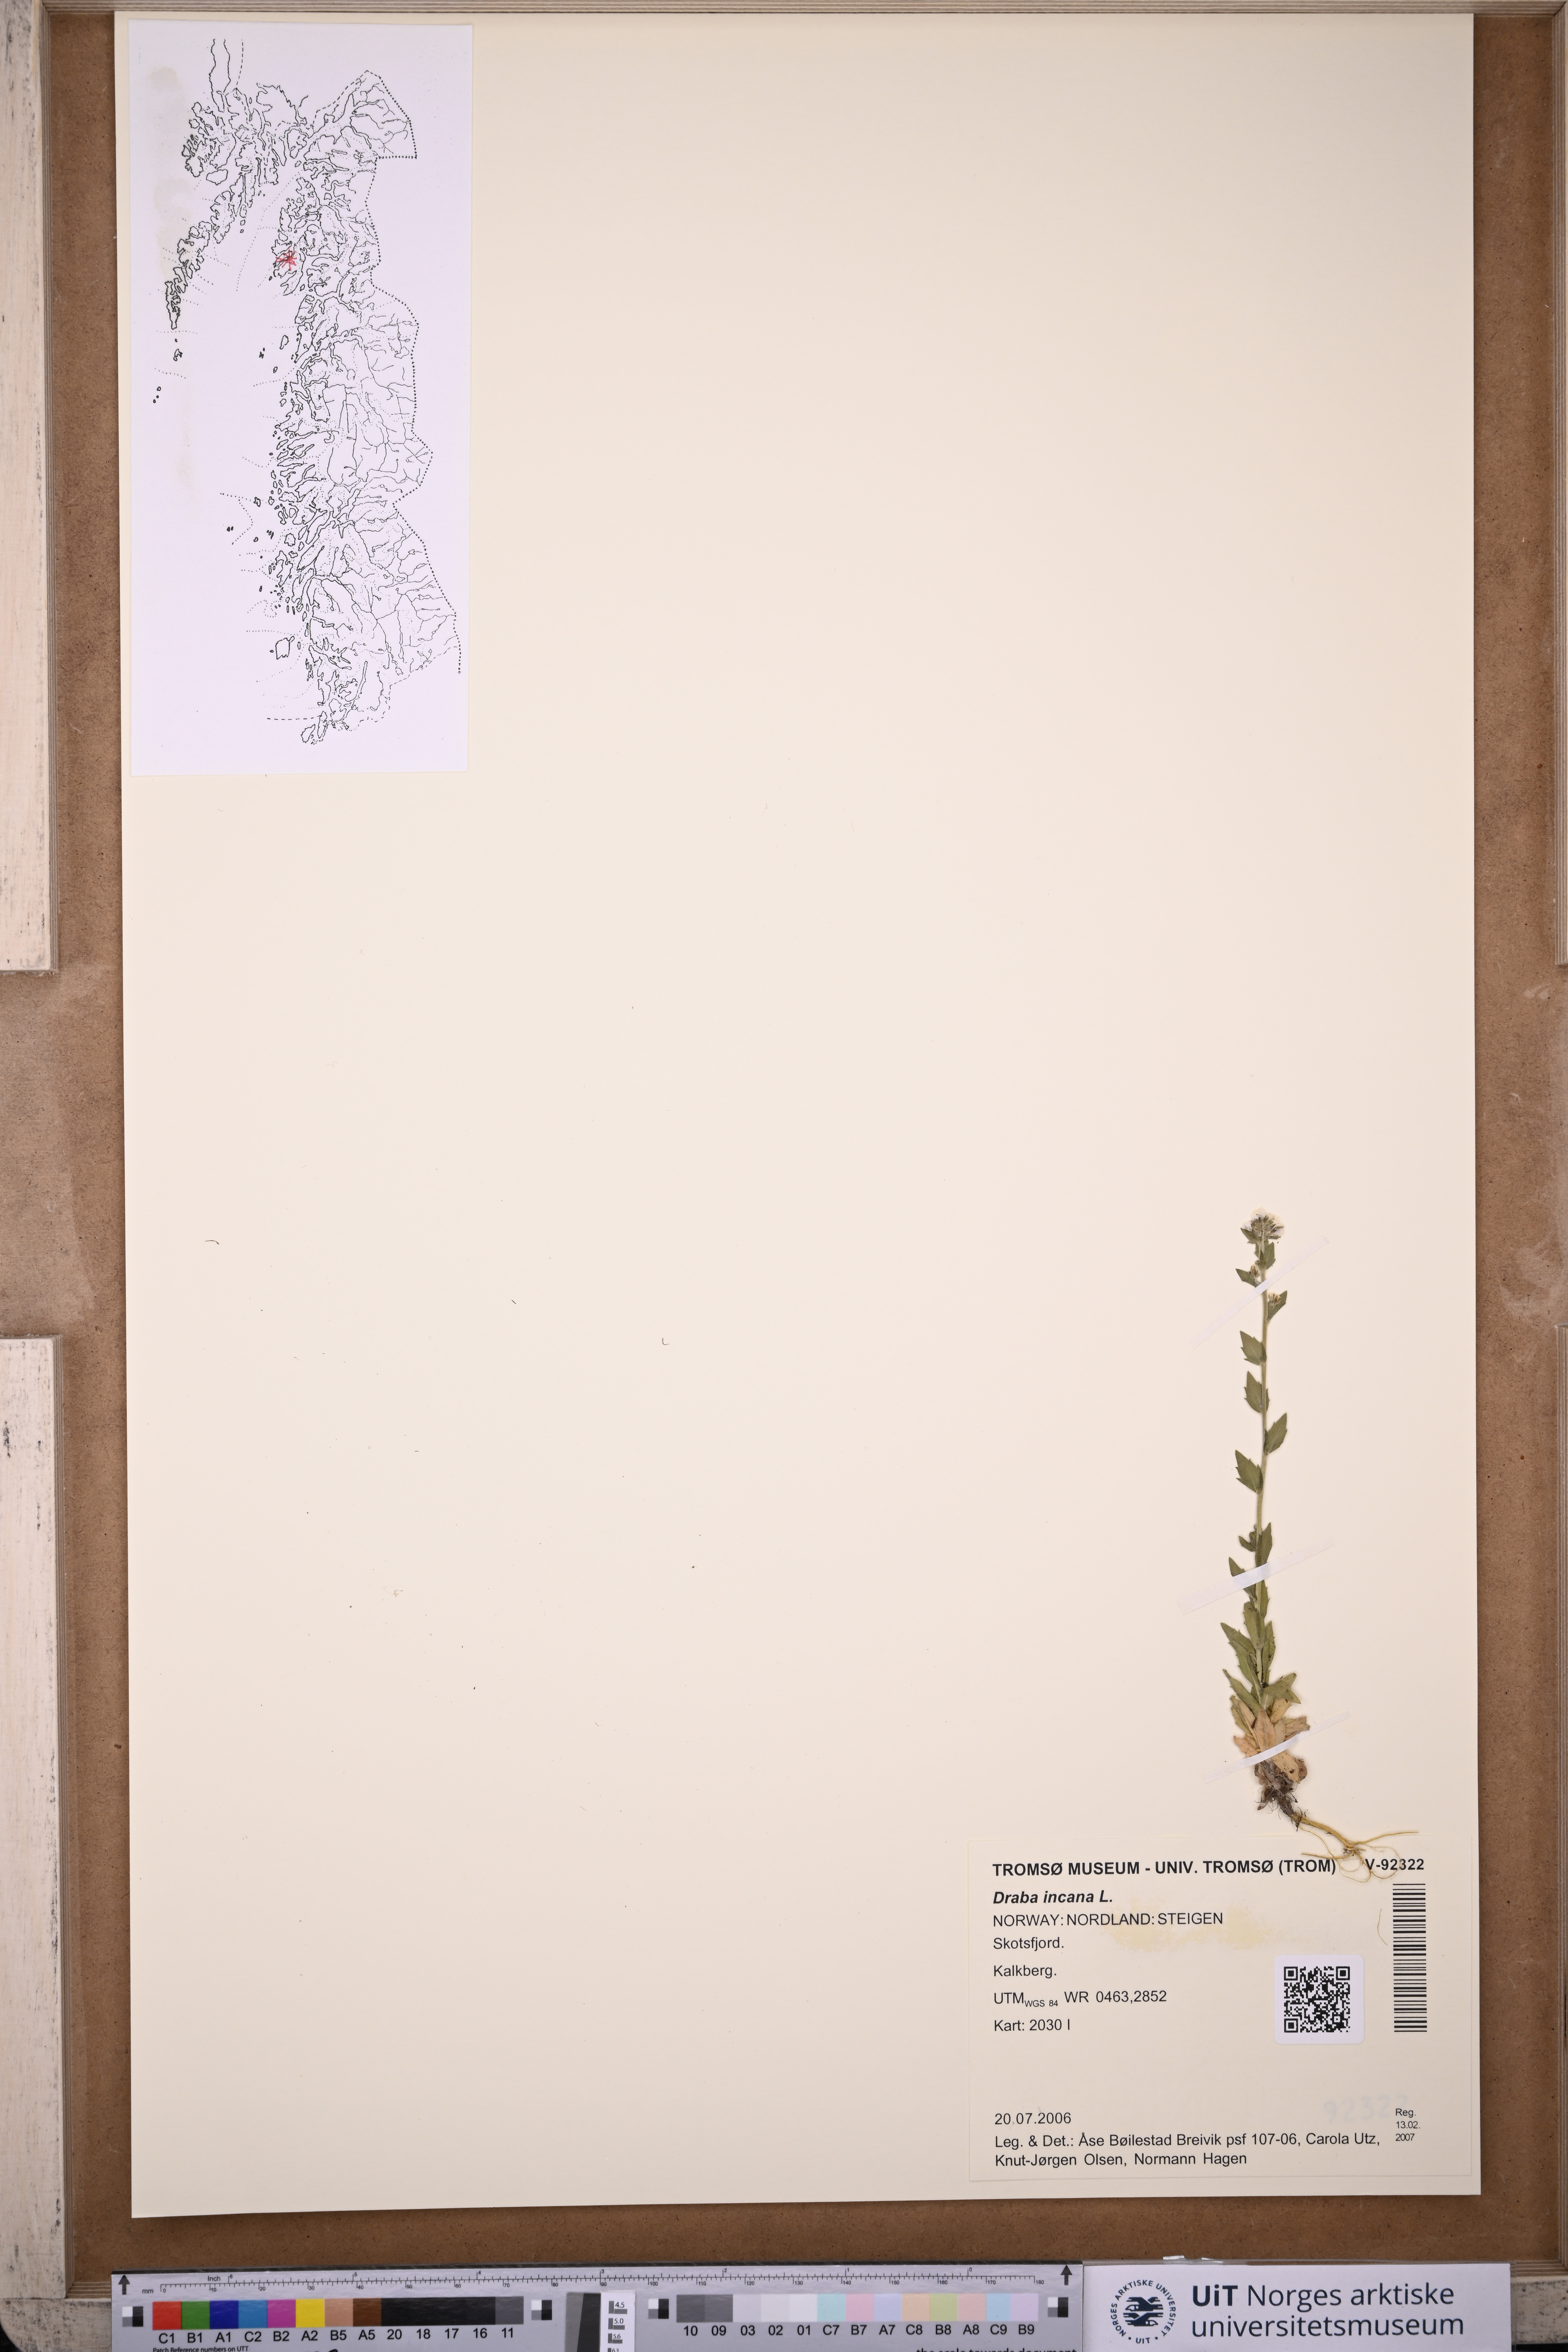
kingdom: Plantae
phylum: Tracheophyta
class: Magnoliopsida
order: Brassicales
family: Brassicaceae
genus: Draba
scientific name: Draba incana
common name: Hoary whitlow-grass
